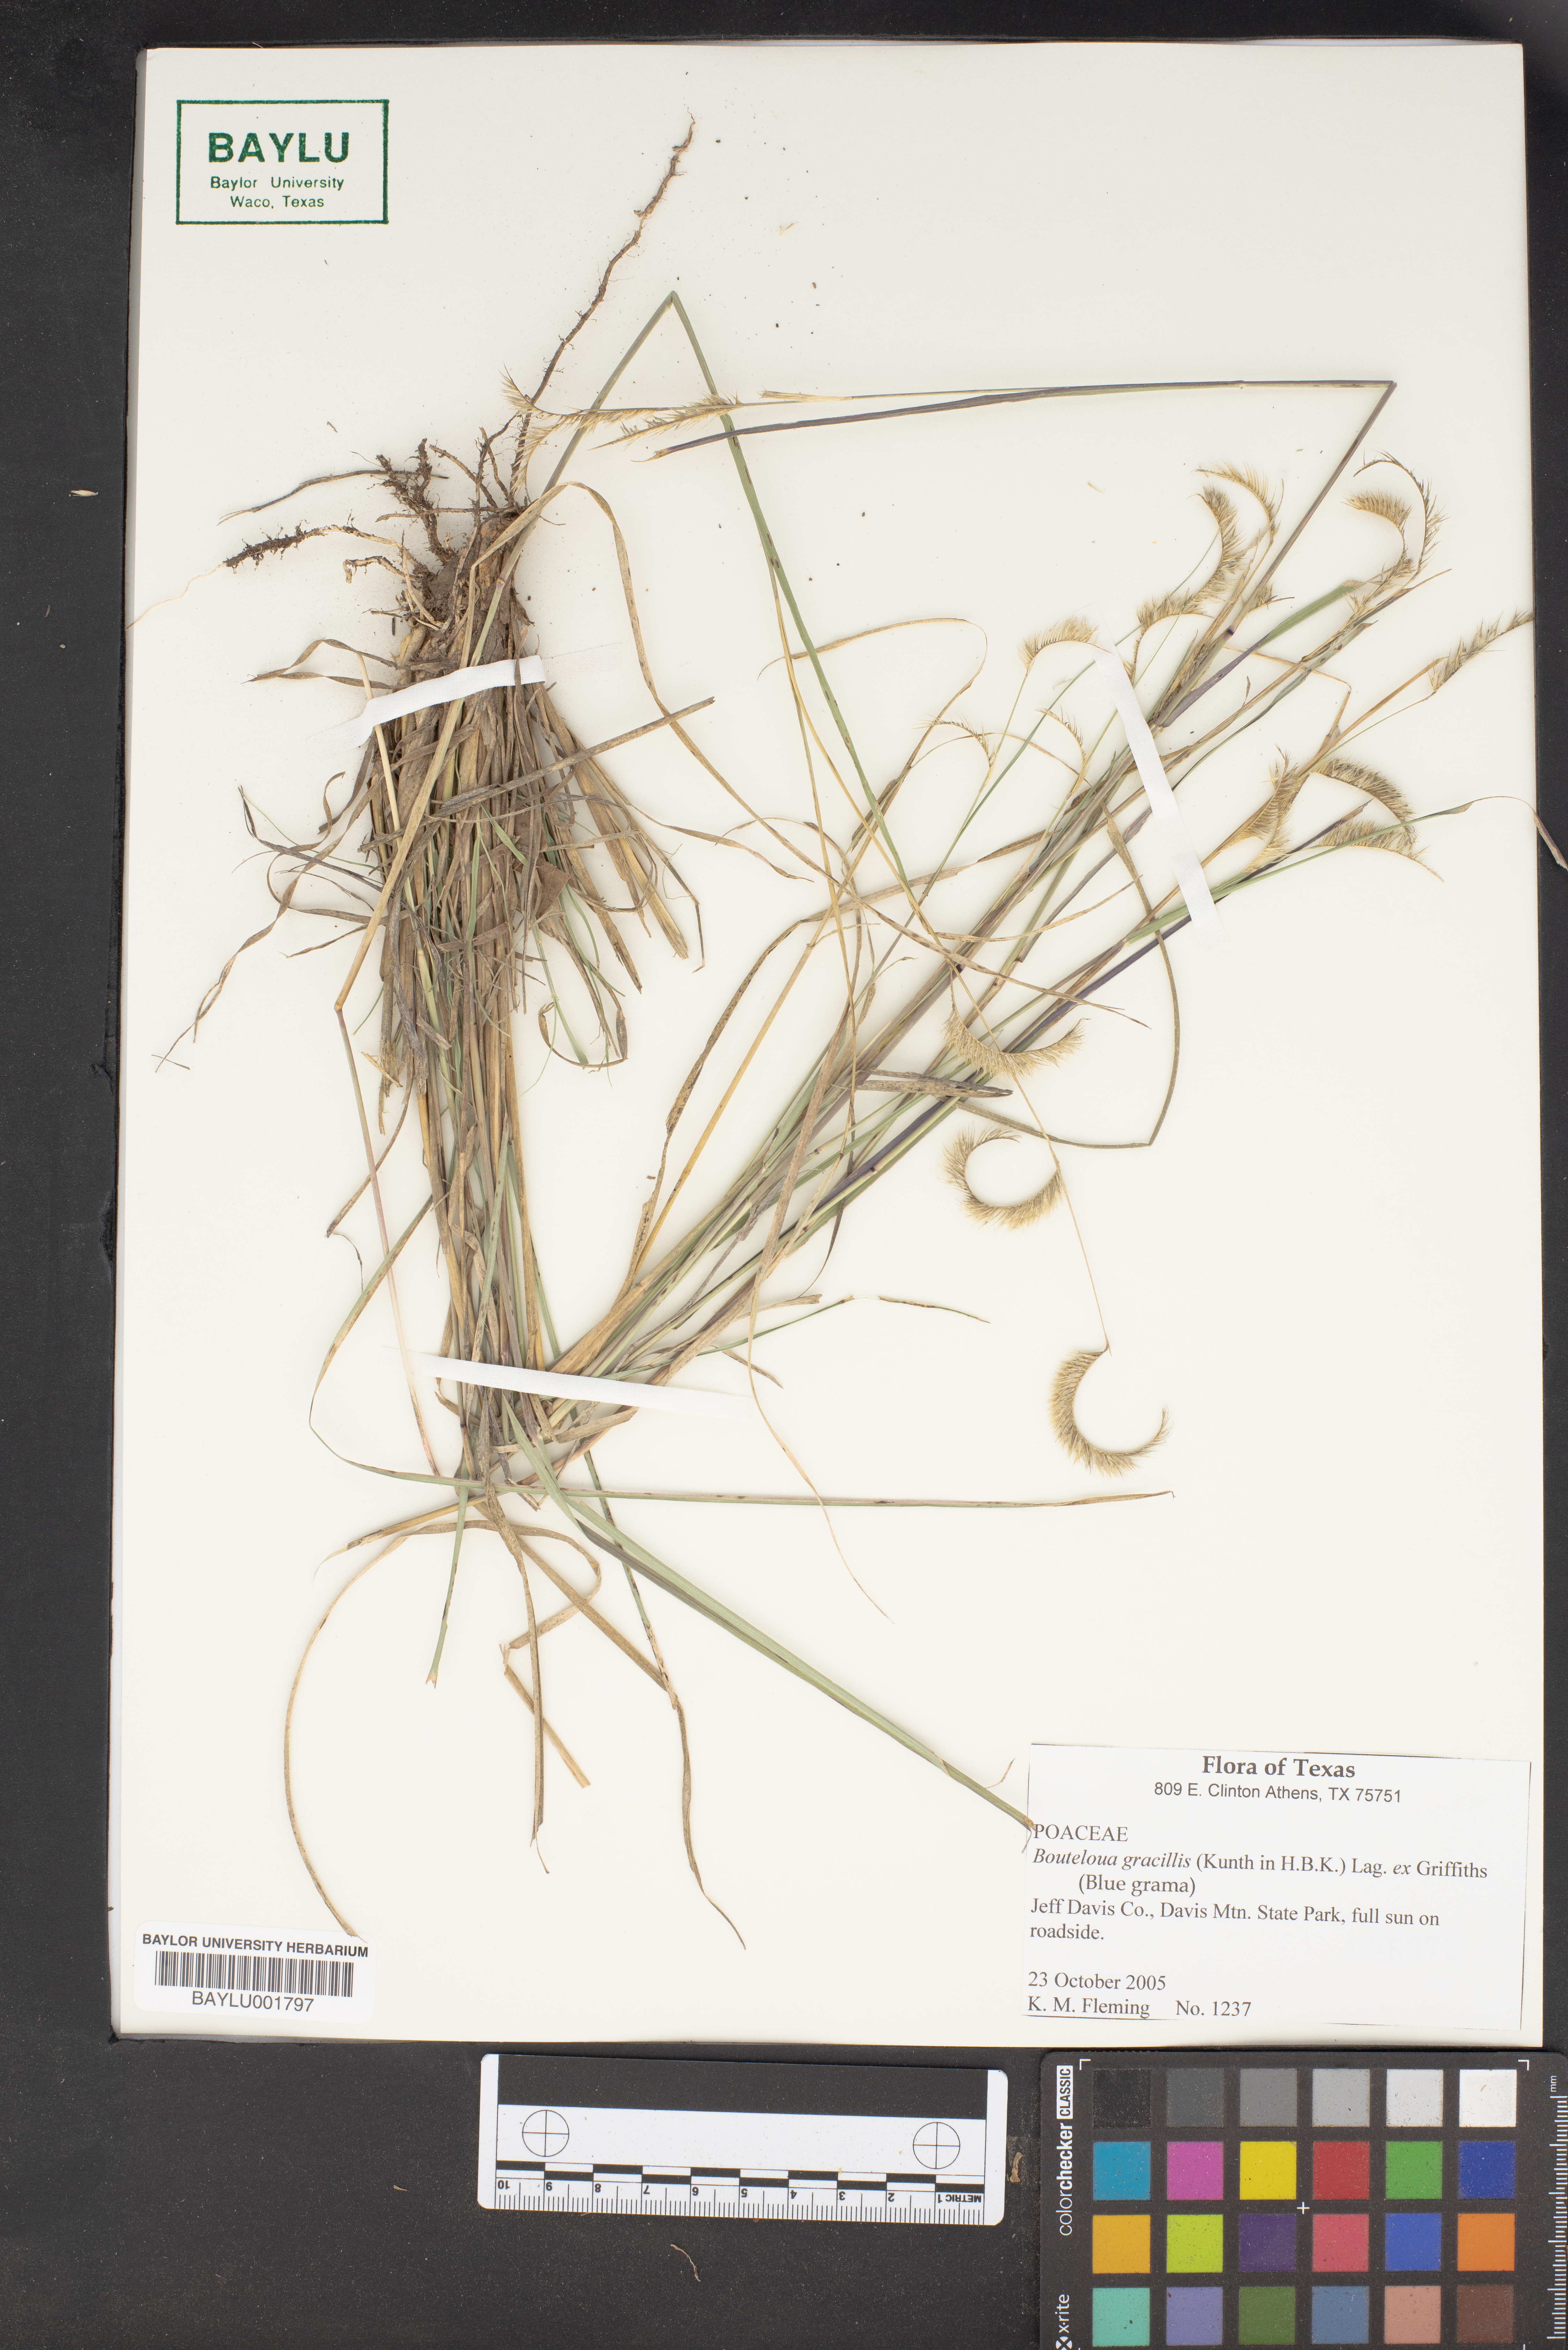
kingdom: Plantae
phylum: Tracheophyta
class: Liliopsida
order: Poales
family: Poaceae
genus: Bouteloua
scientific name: Bouteloua gracilis
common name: Blue grama
